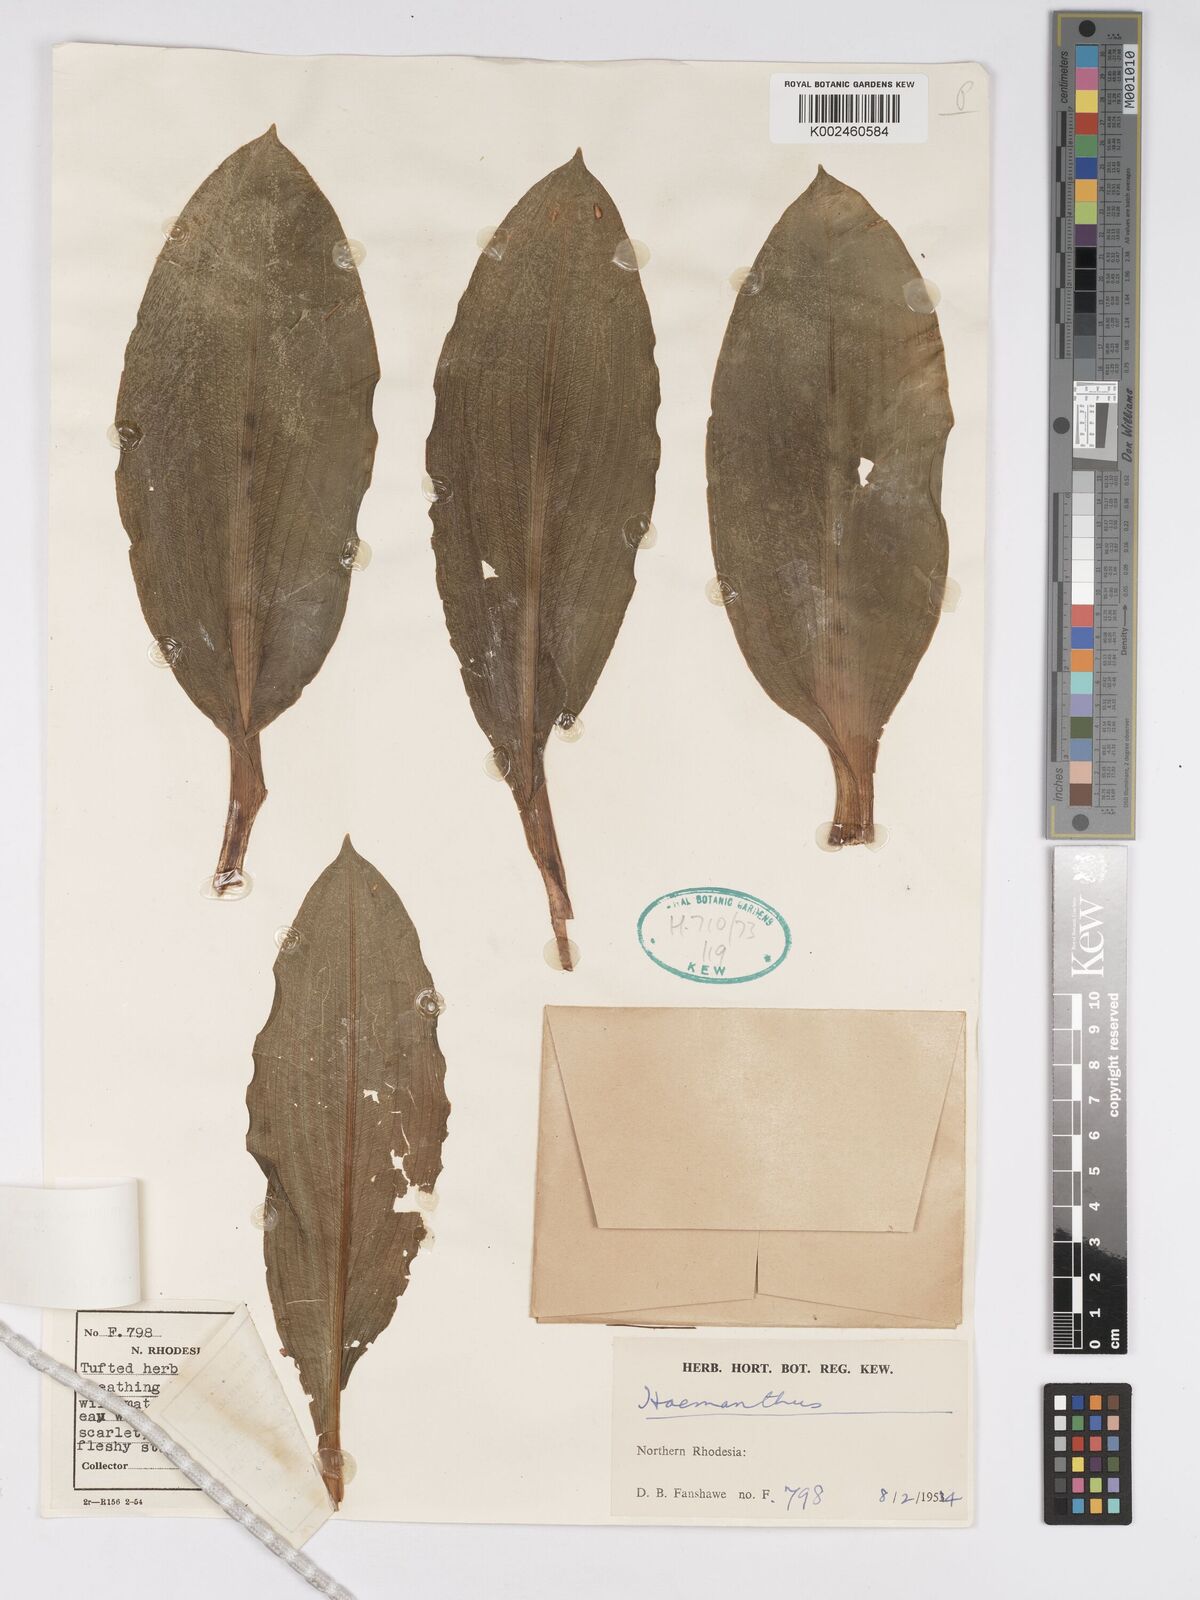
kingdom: Plantae
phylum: Tracheophyta
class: Liliopsida
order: Asparagales
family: Amaryllidaceae
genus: Scadoxus
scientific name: Scadoxus multiflorus
